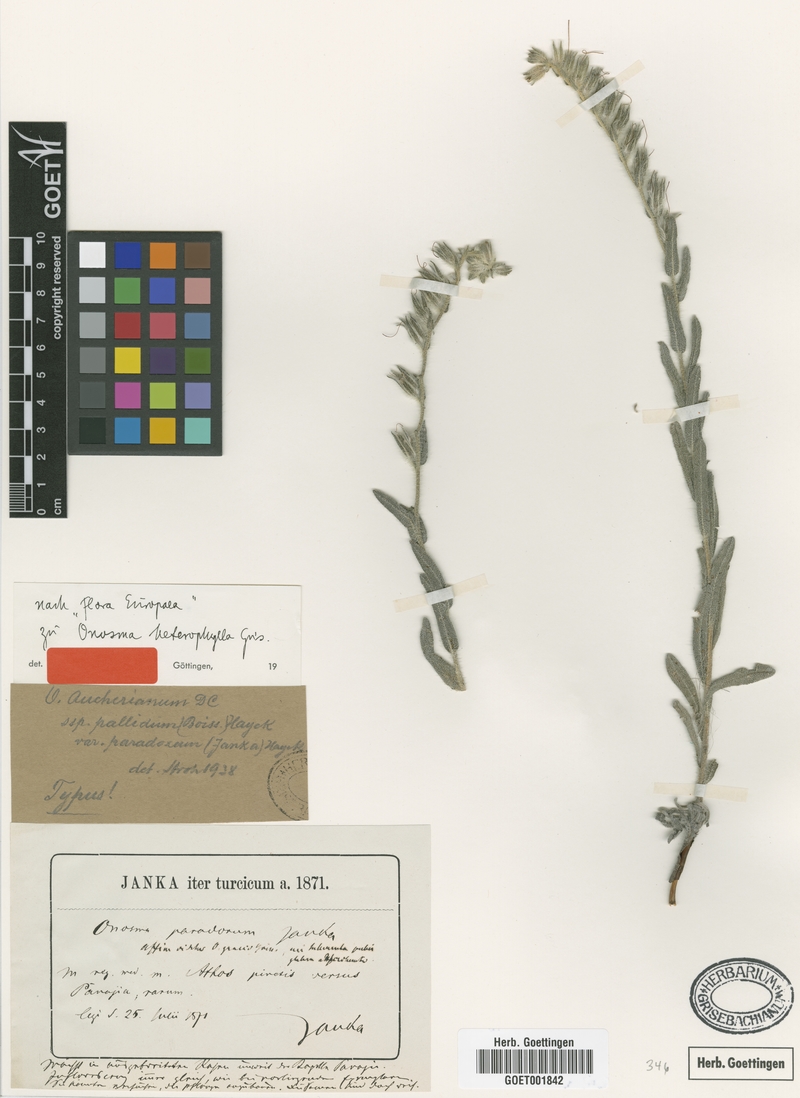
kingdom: Plantae
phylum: Tracheophyta
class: Magnoliopsida
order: Boraginales
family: Boraginaceae
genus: Onosma
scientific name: Onosma heterophylla
